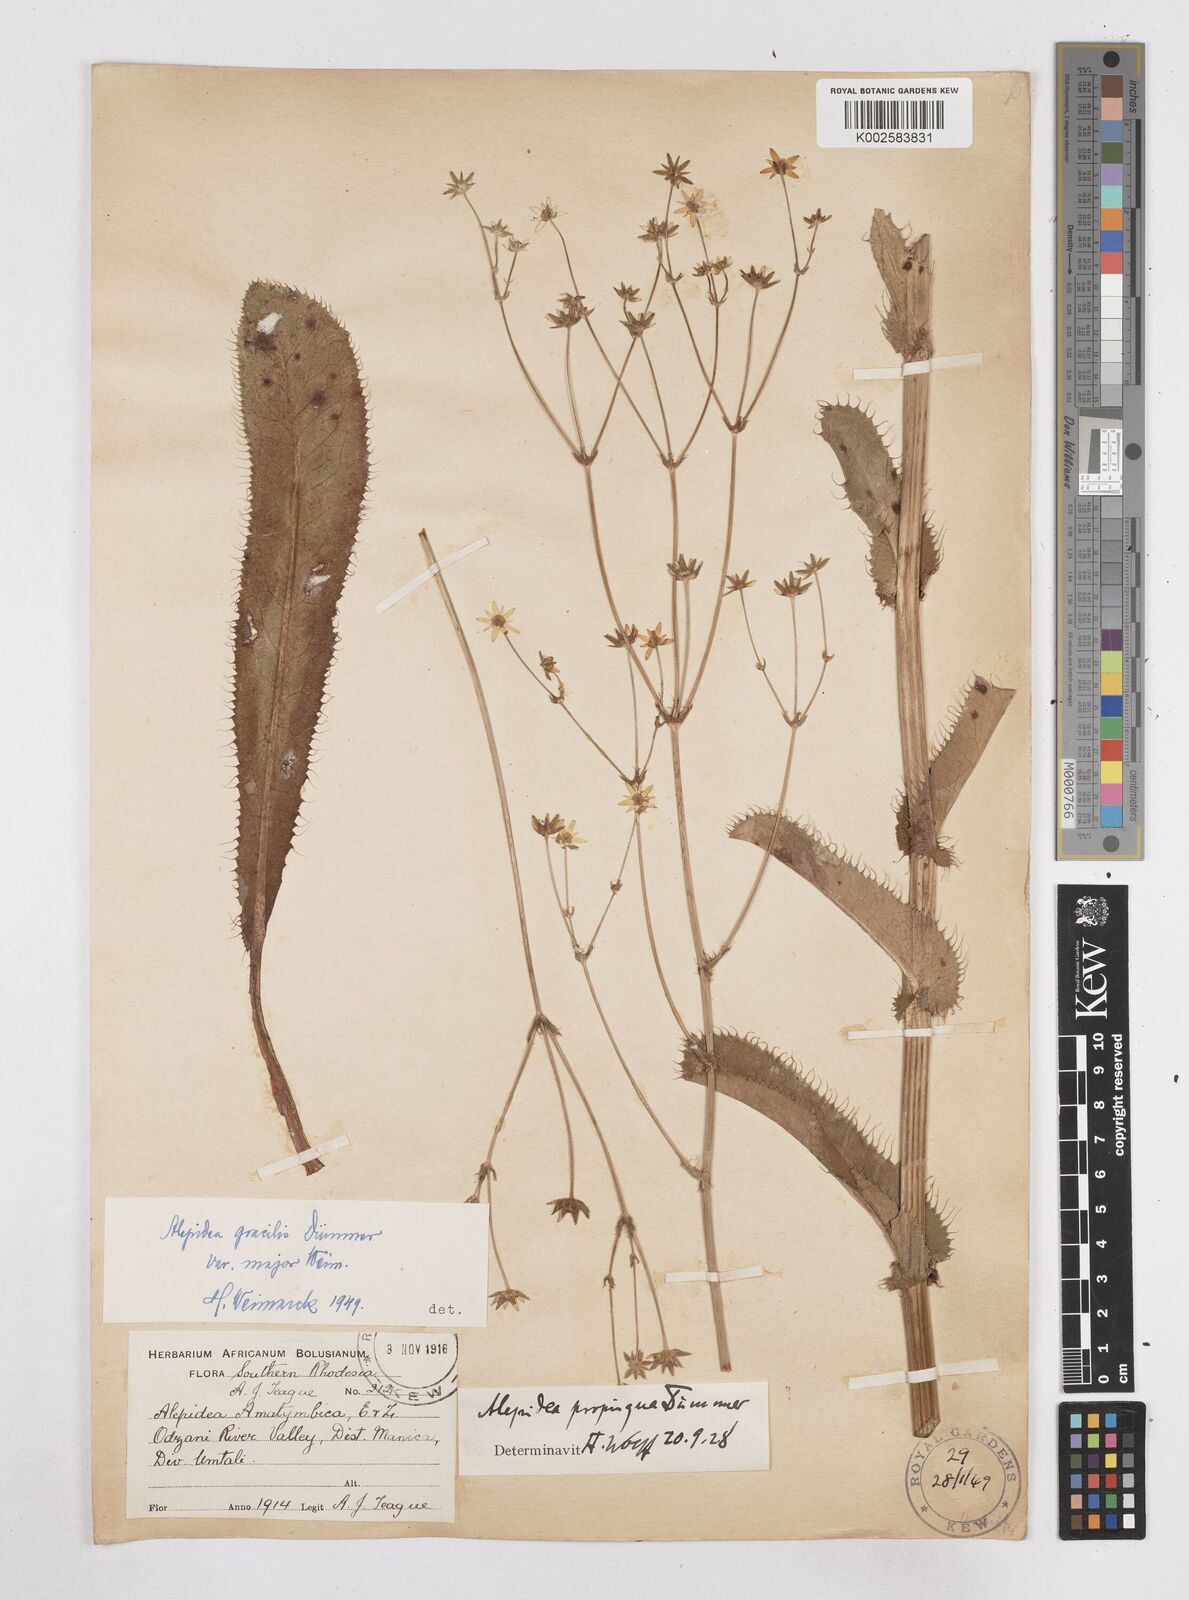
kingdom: Plantae
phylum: Tracheophyta
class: Magnoliopsida
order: Apiales
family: Apiaceae
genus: Alepidea
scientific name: Alepidea peduncularis
